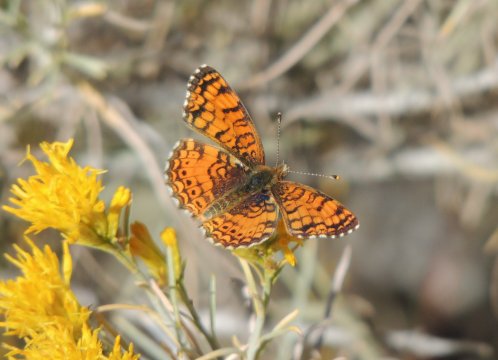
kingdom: Animalia
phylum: Arthropoda
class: Insecta
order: Lepidoptera
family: Nymphalidae
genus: Eresia
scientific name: Eresia aveyrona
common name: Mylitta Crescent
